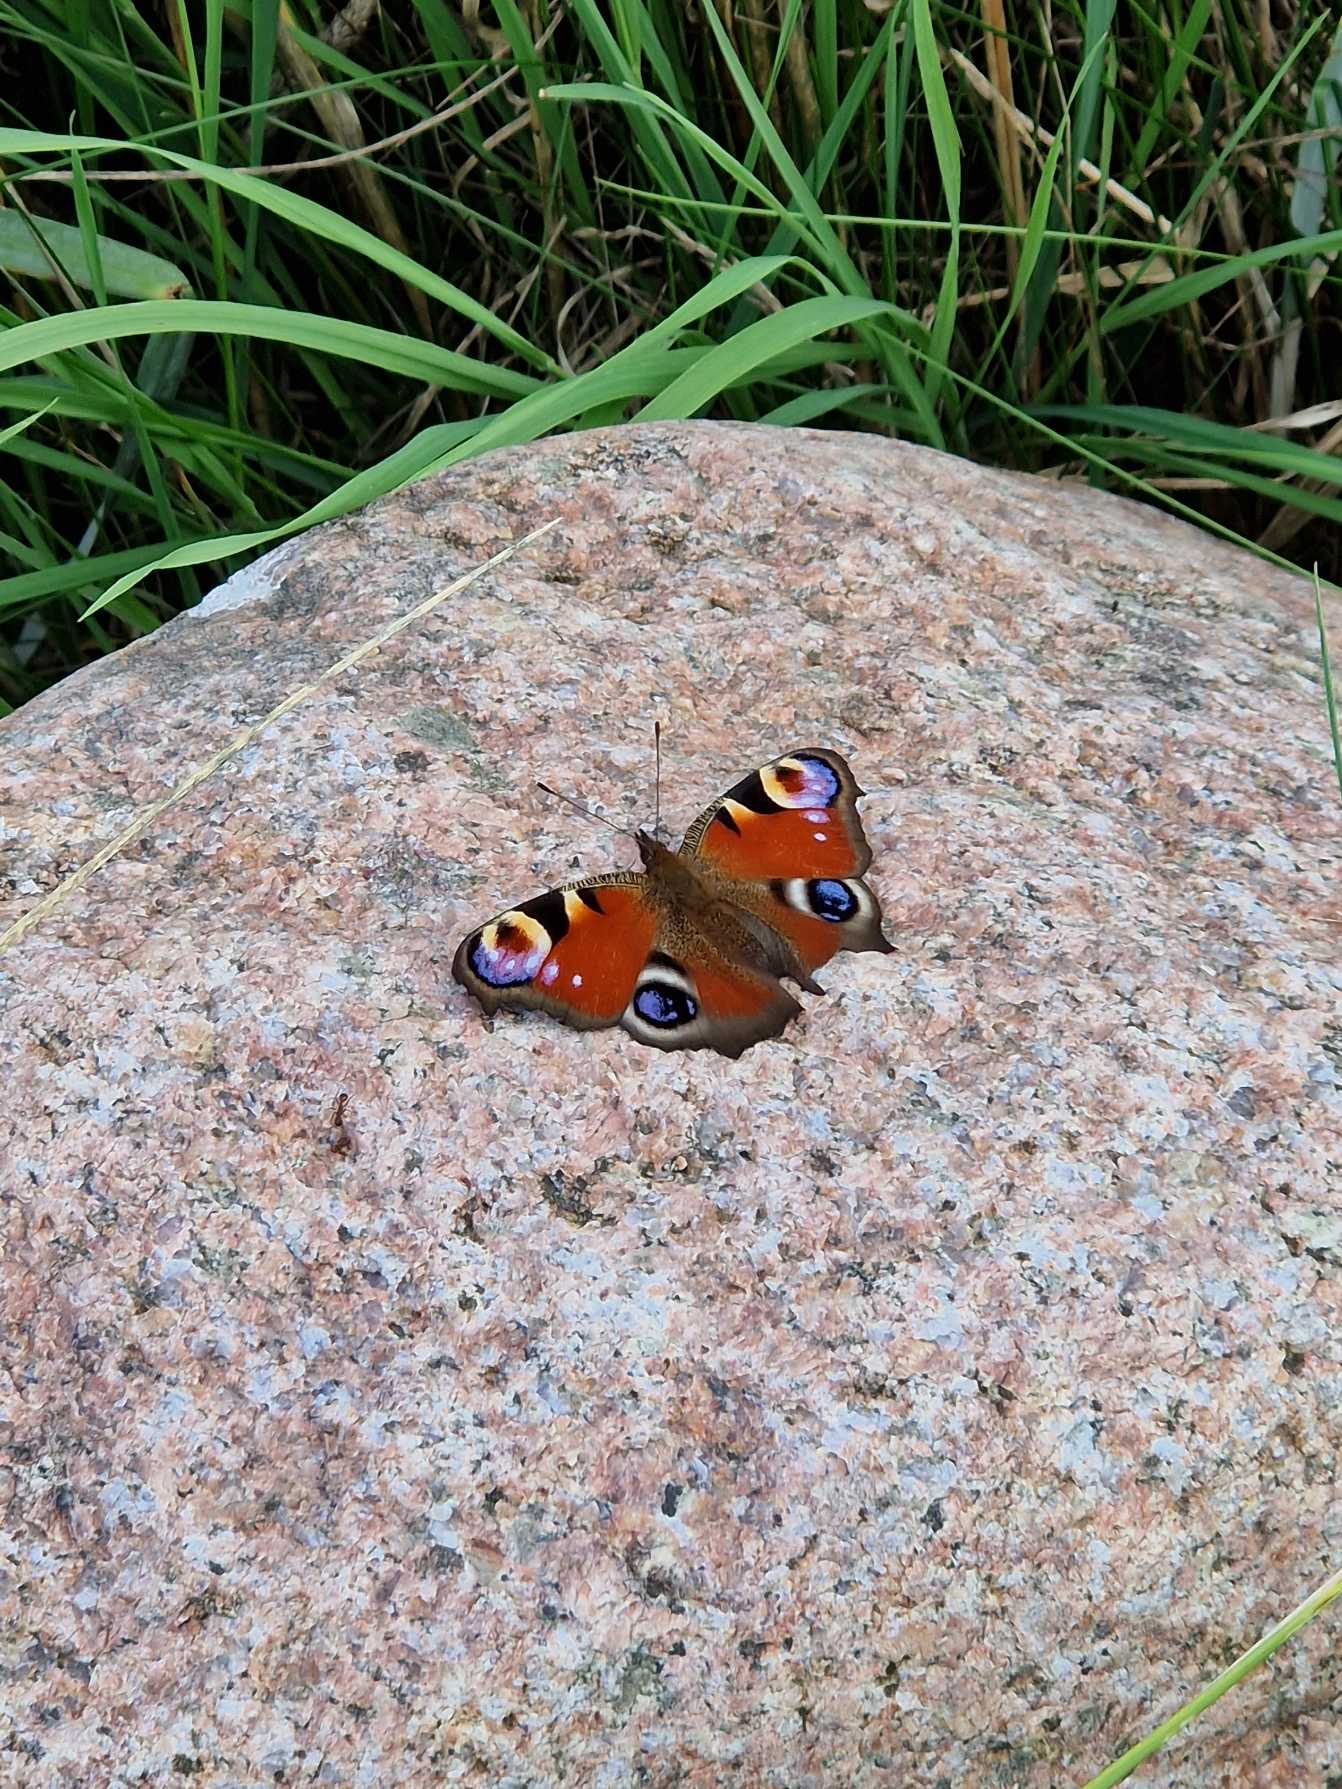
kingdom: Animalia
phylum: Arthropoda
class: Insecta
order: Lepidoptera
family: Nymphalidae
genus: Aglais
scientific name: Aglais io
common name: Dagpåfugleøje
